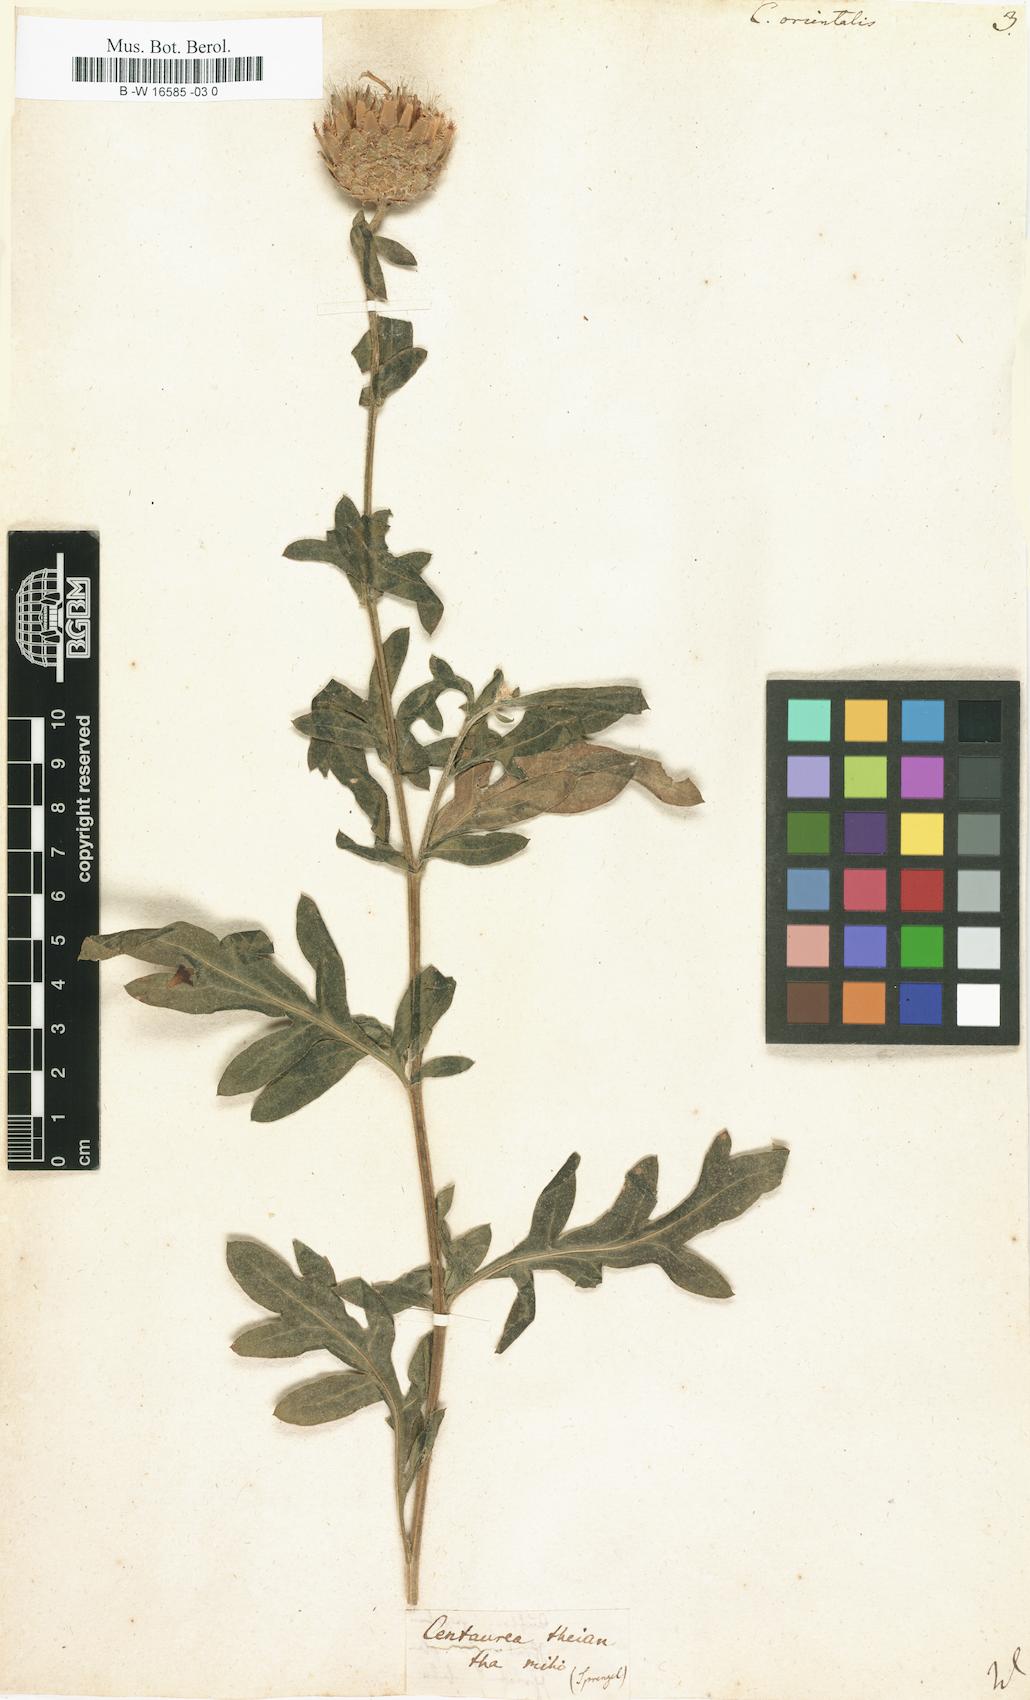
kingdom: Plantae
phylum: Tracheophyta
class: Magnoliopsida
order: Asterales
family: Asteraceae
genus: Centaurea
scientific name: Centaurea orientalis
